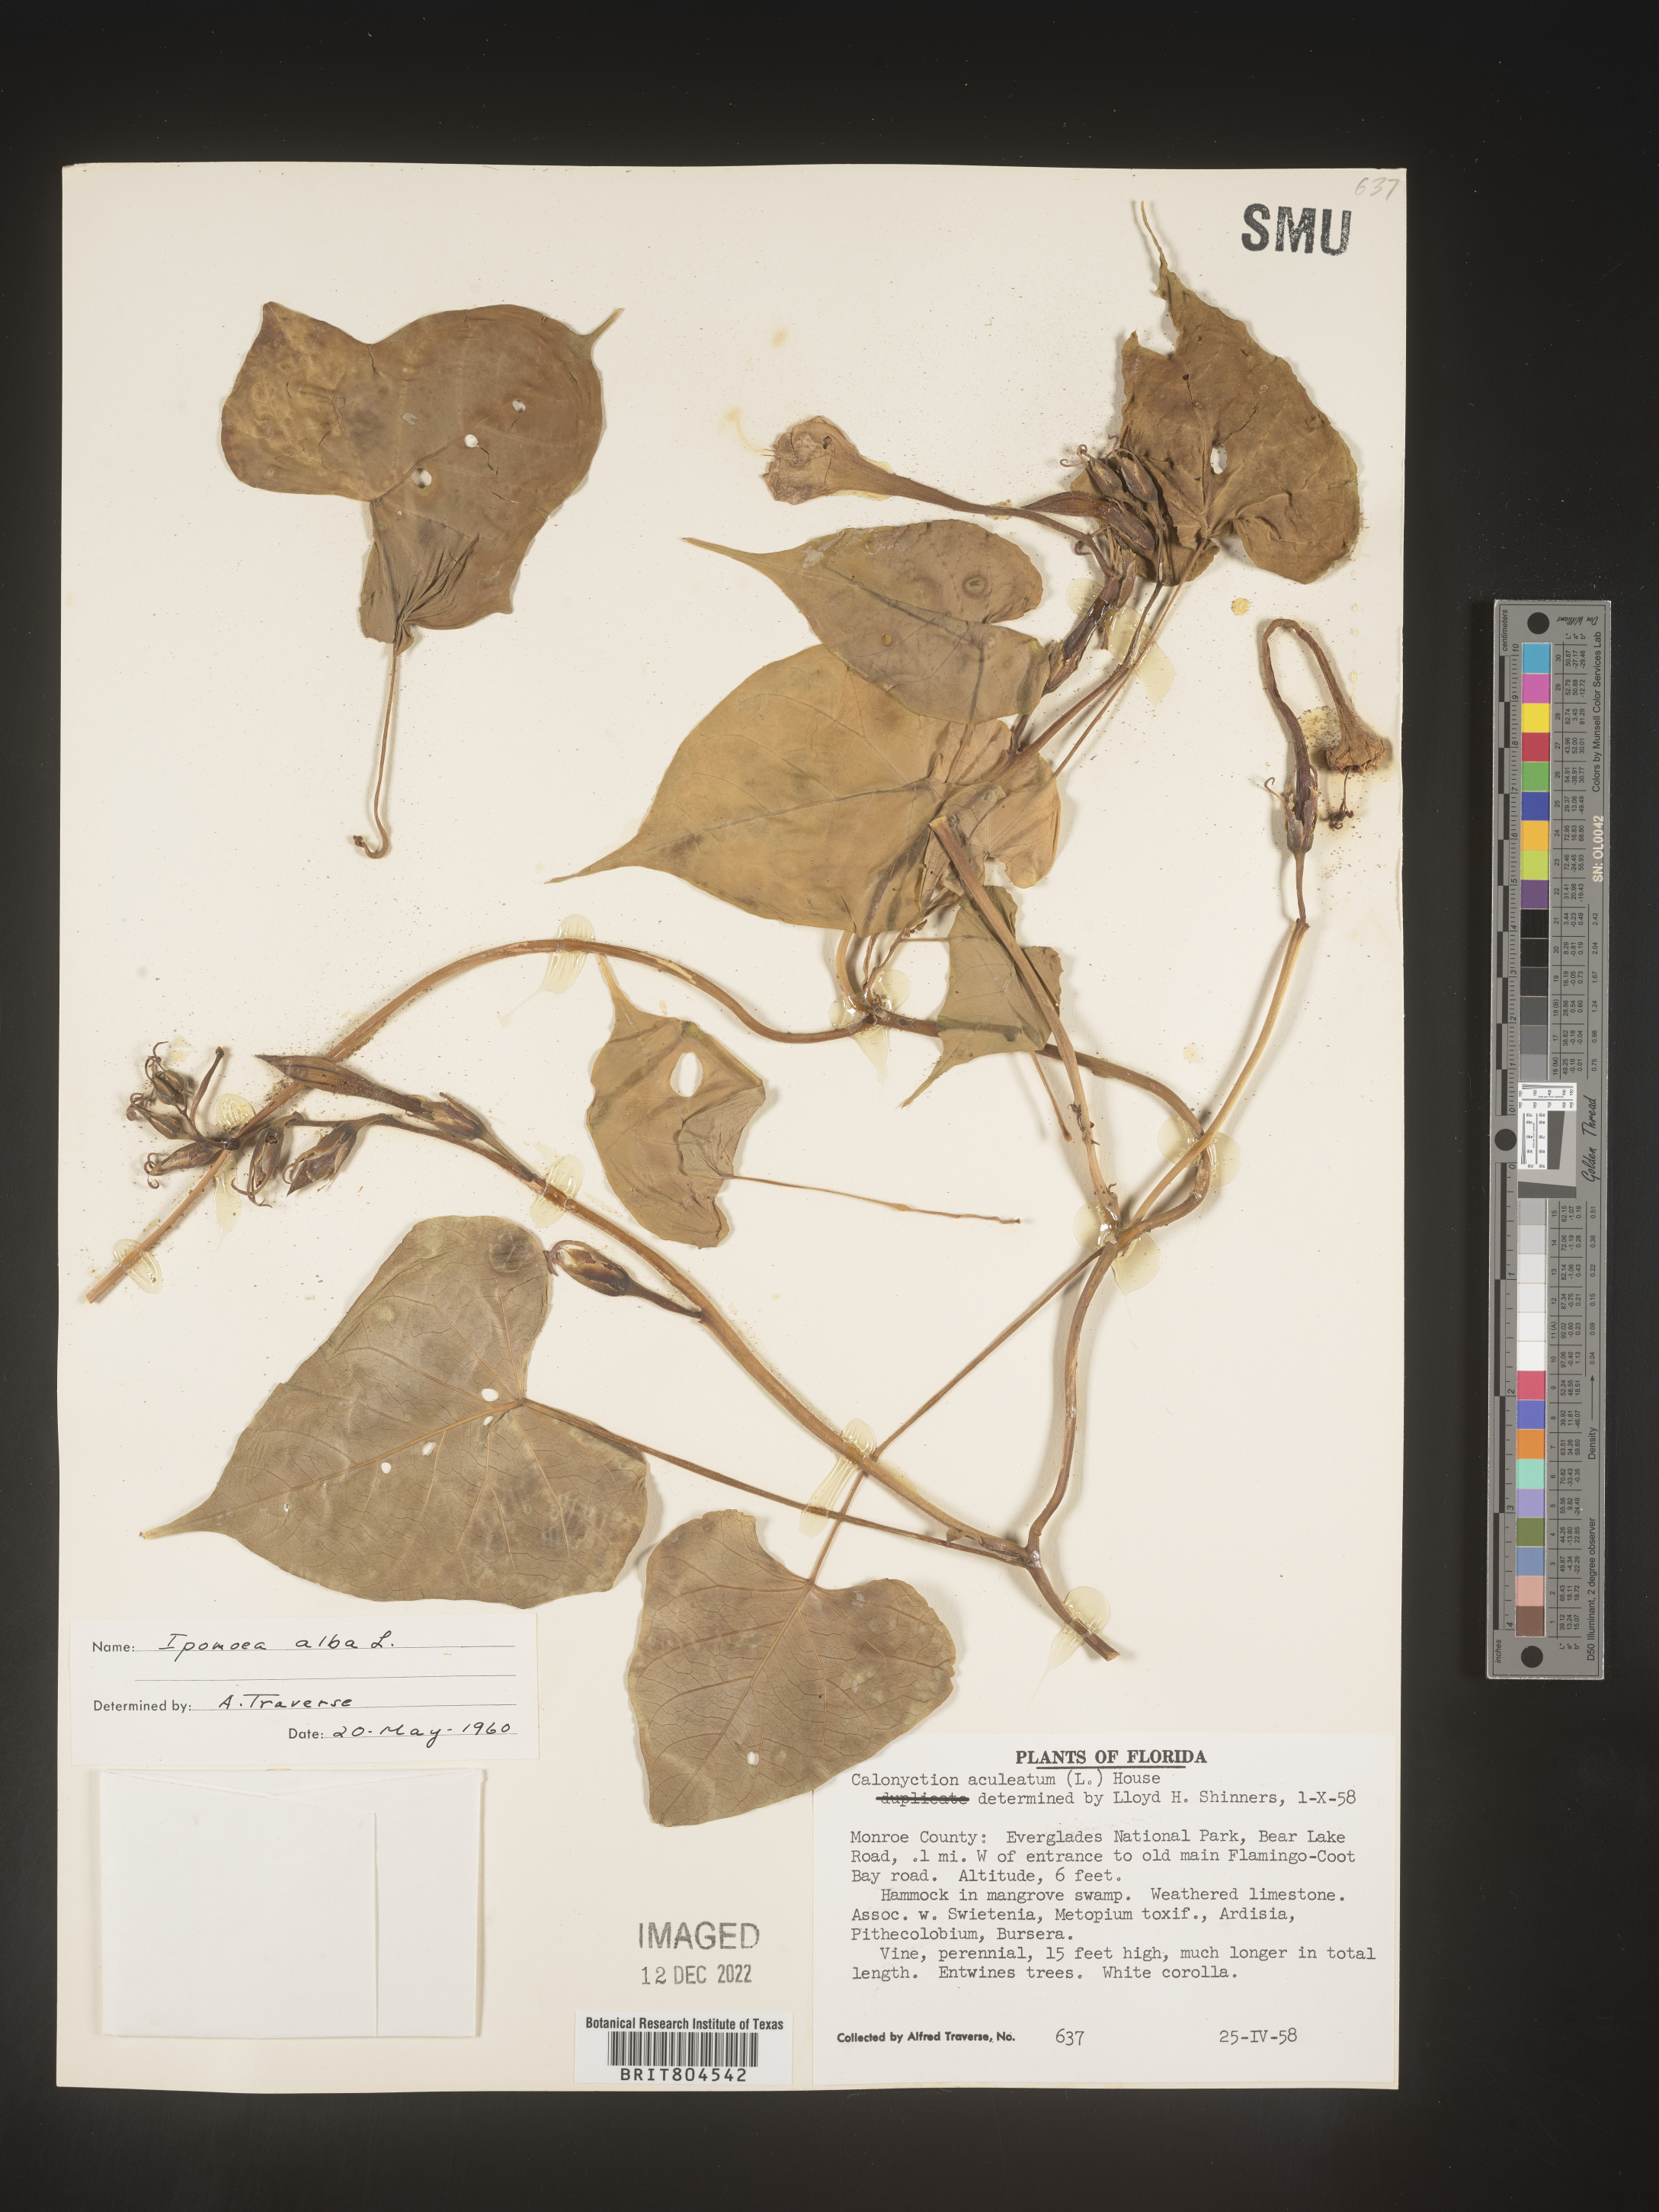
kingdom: Plantae
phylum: Tracheophyta
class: Magnoliopsida
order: Solanales
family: Convolvulaceae
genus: Ipomoea
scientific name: Ipomoea alba
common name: Moonflower
